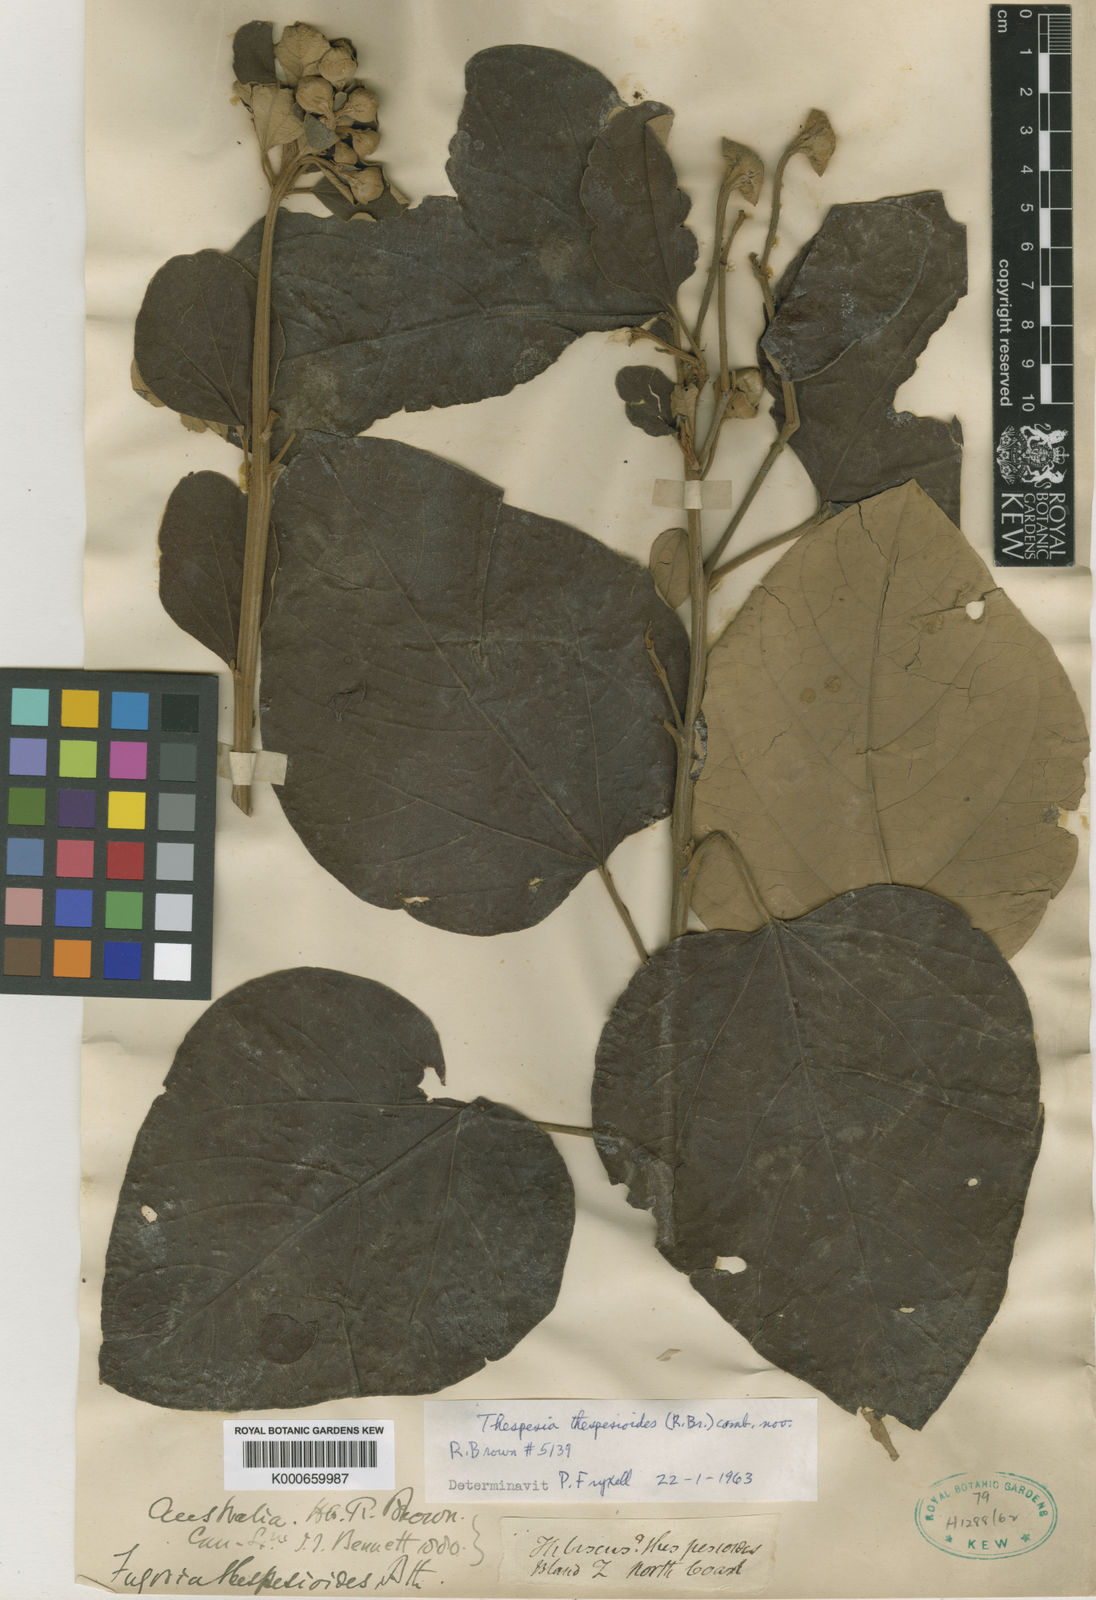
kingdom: Plantae
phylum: Tracheophyta
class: Magnoliopsida
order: Malvales
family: Malvaceae
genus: Thespesia
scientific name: Thespesia thespesioides
